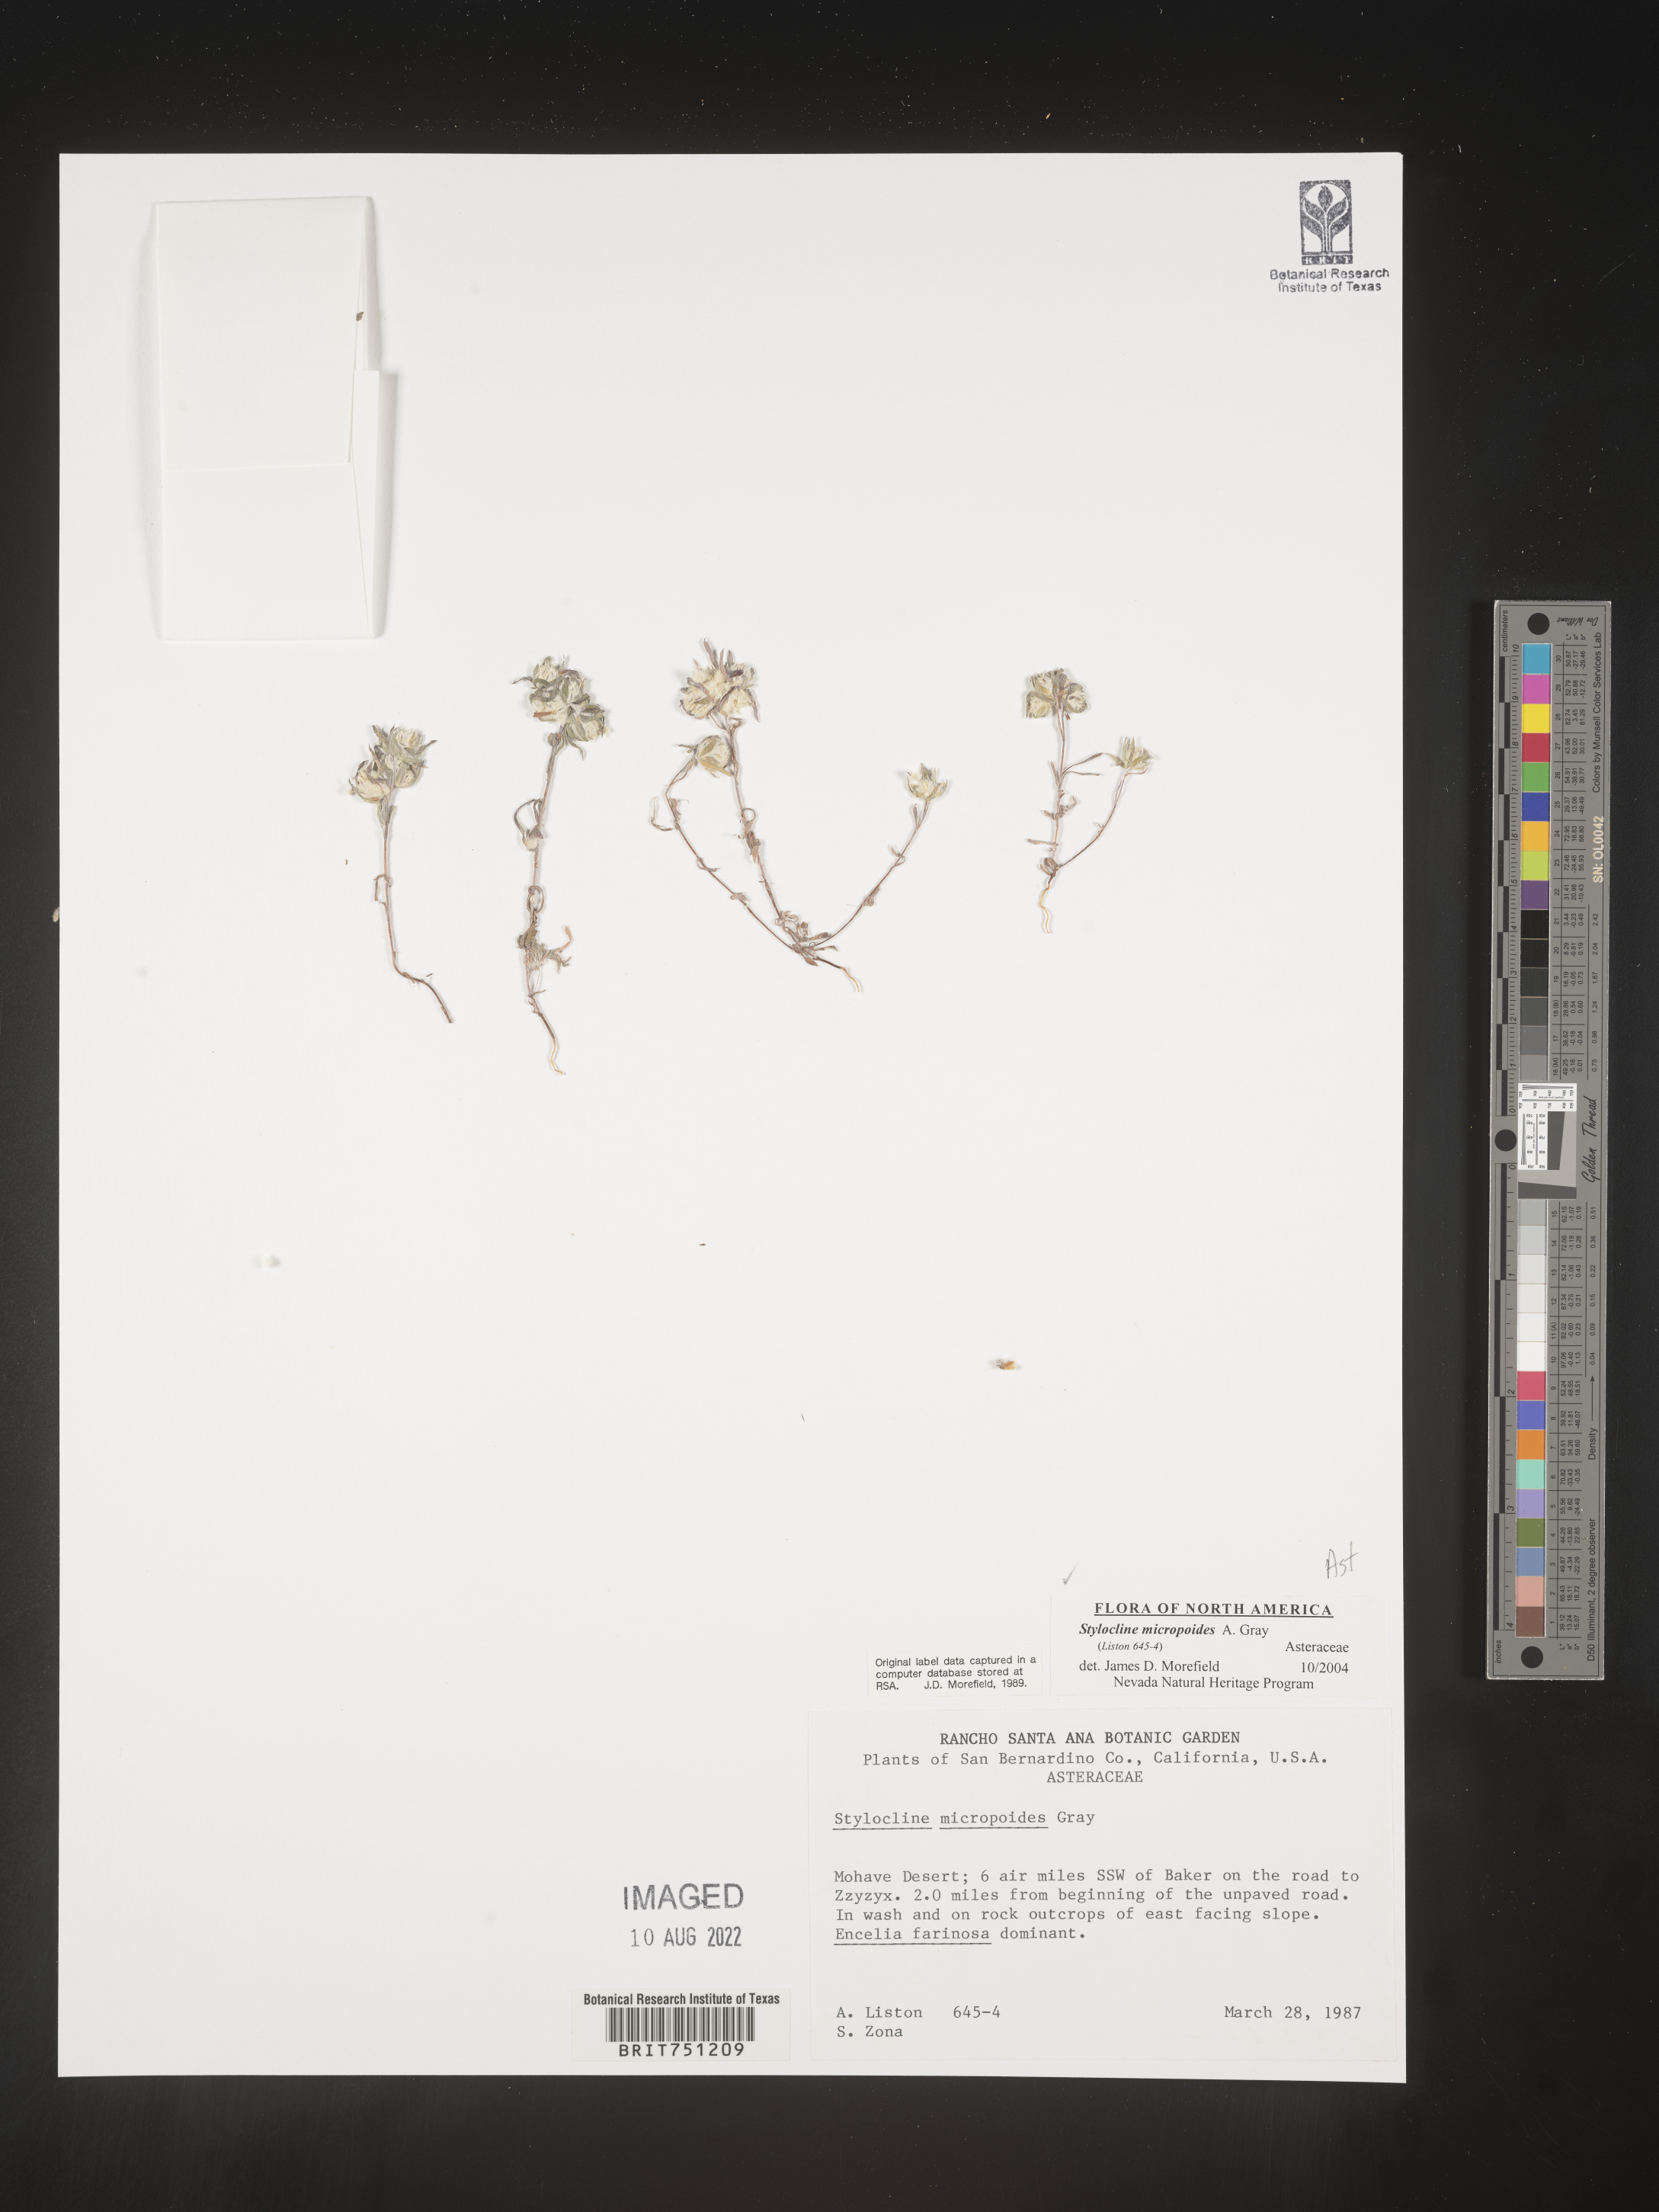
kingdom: Plantae
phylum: Tracheophyta
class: Magnoliopsida
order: Asterales
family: Asteraceae
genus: Stylocline
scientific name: Stylocline
